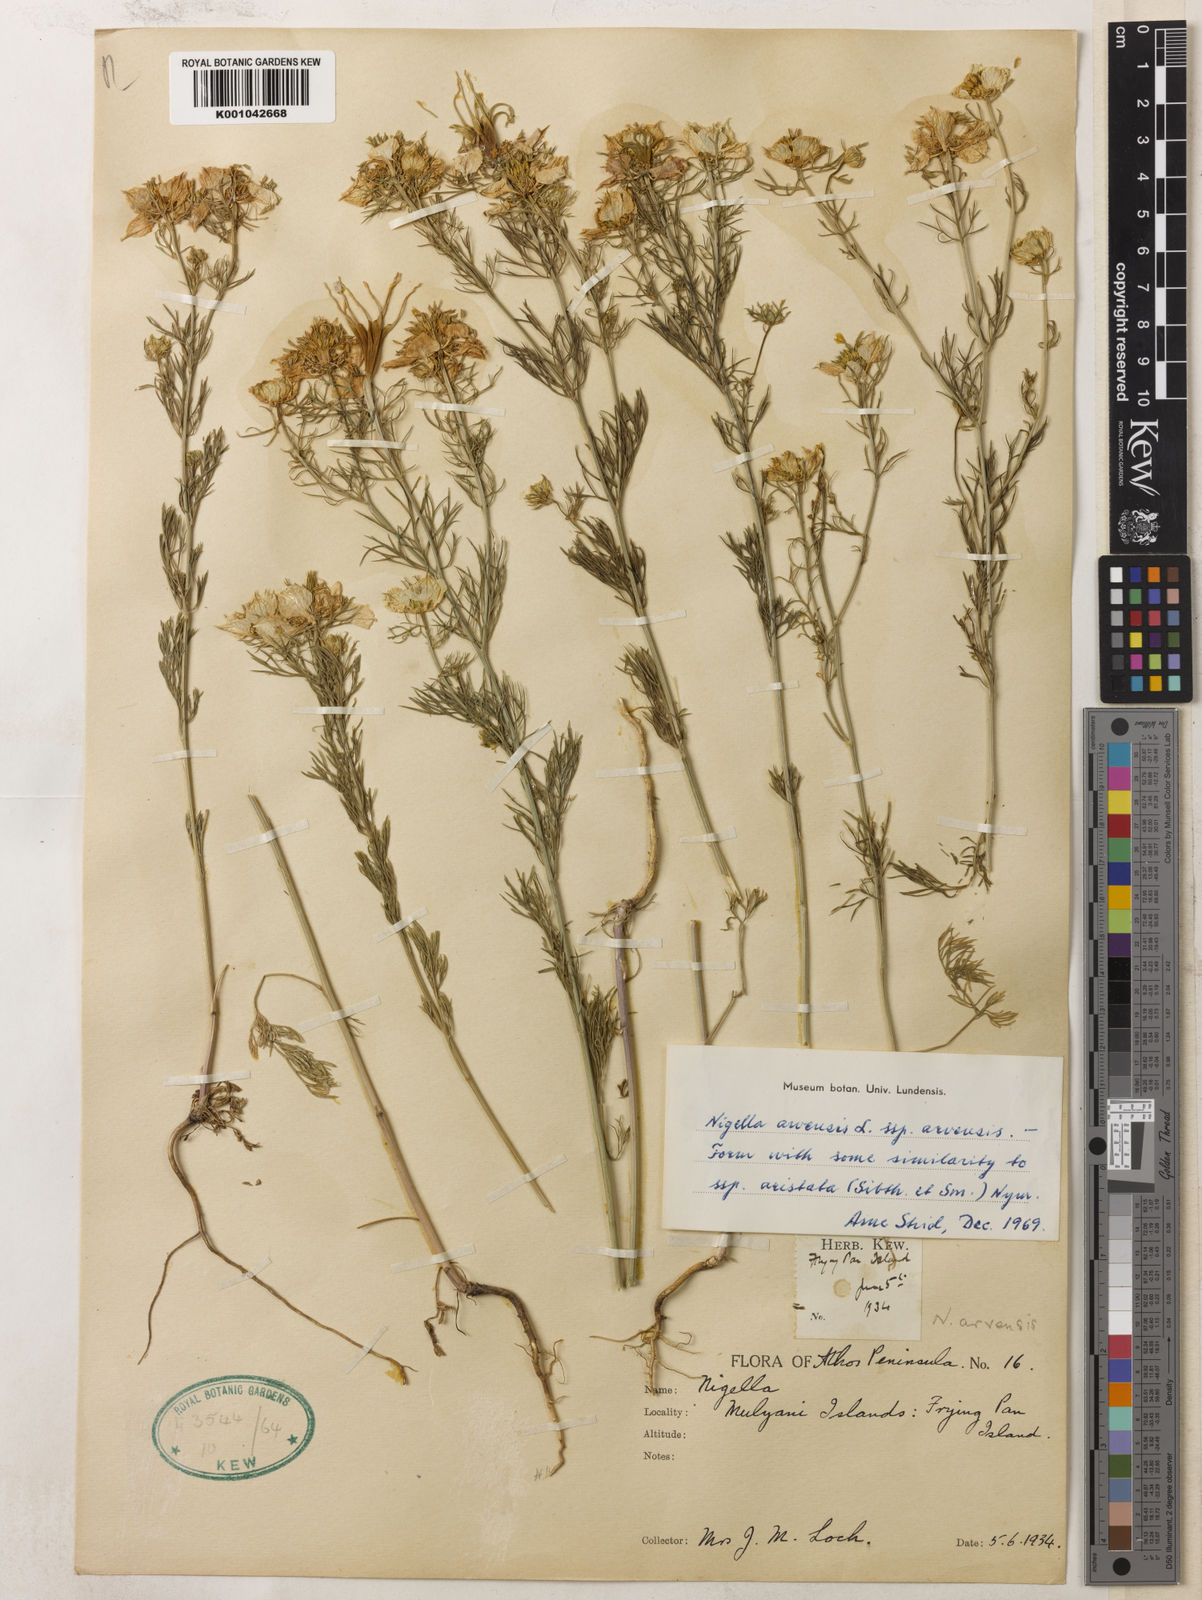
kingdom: Plantae
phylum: Tracheophyta
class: Magnoliopsida
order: Ranunculales
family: Ranunculaceae
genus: Nigella
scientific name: Nigella arvensis
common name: Wild fennel-flower
